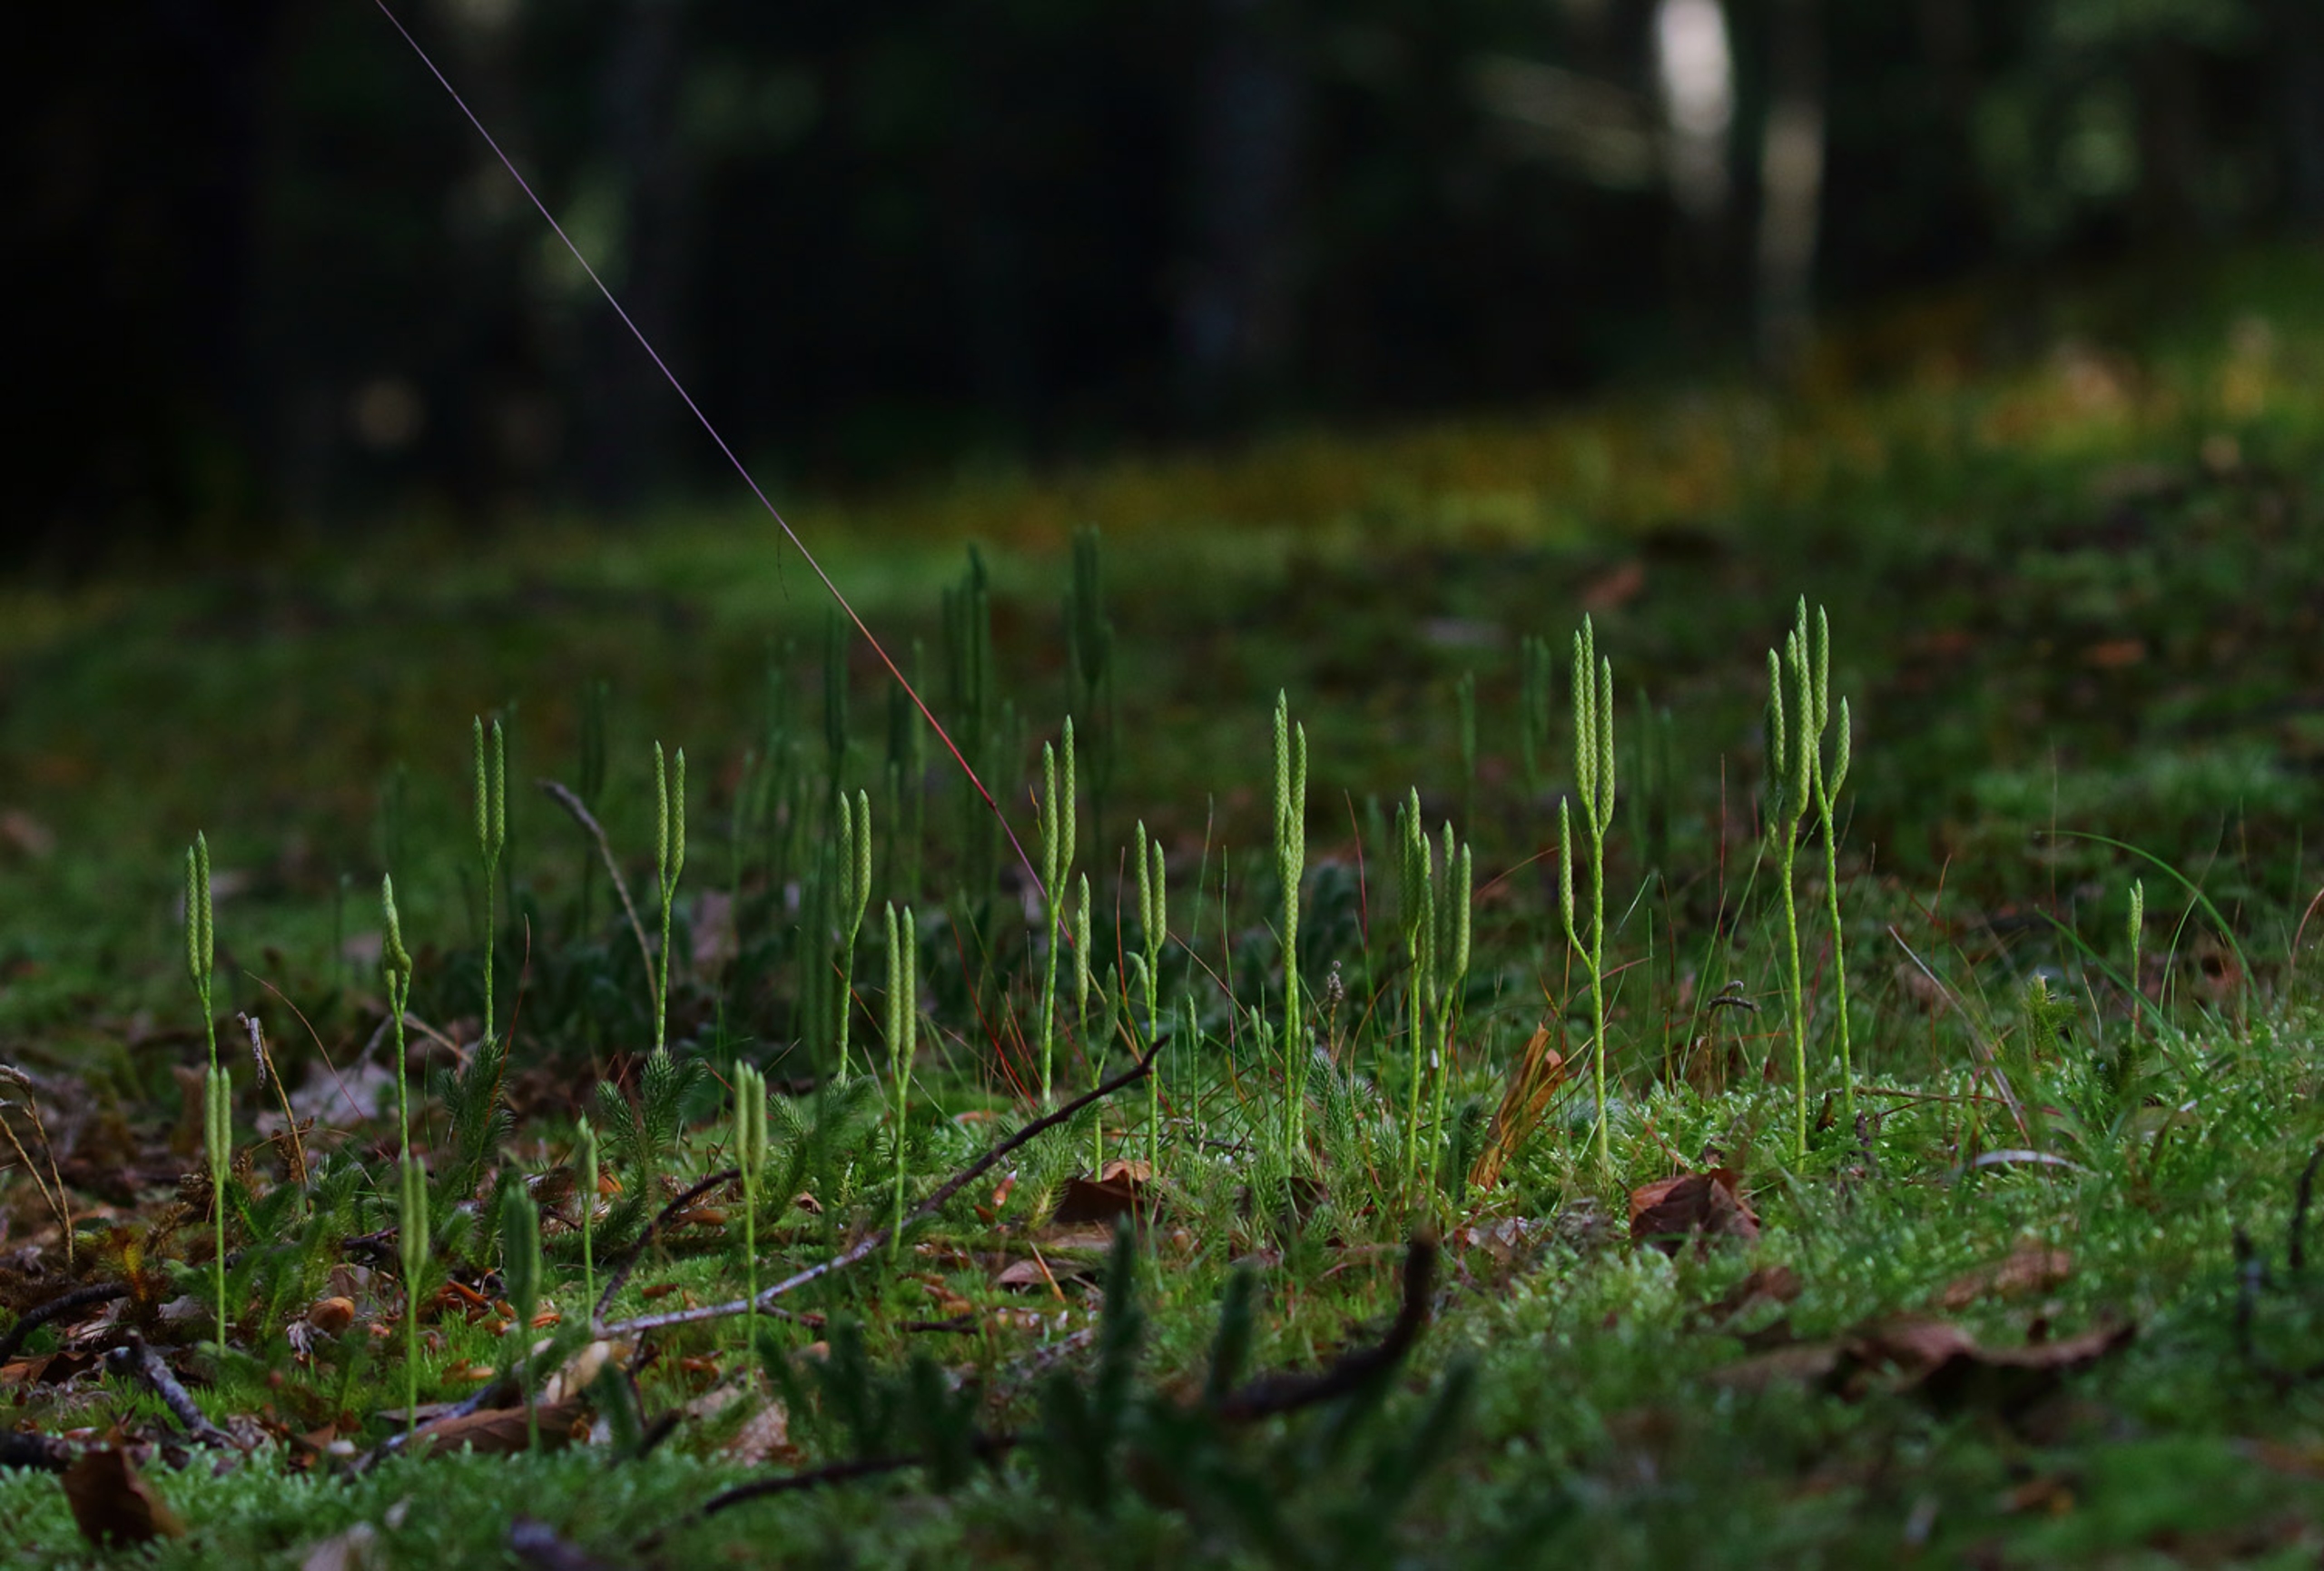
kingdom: Plantae
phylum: Tracheophyta
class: Lycopodiopsida
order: Lycopodiales
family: Lycopodiaceae
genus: Lycopodium
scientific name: Lycopodium clavatum
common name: Almindelig ulvefod
